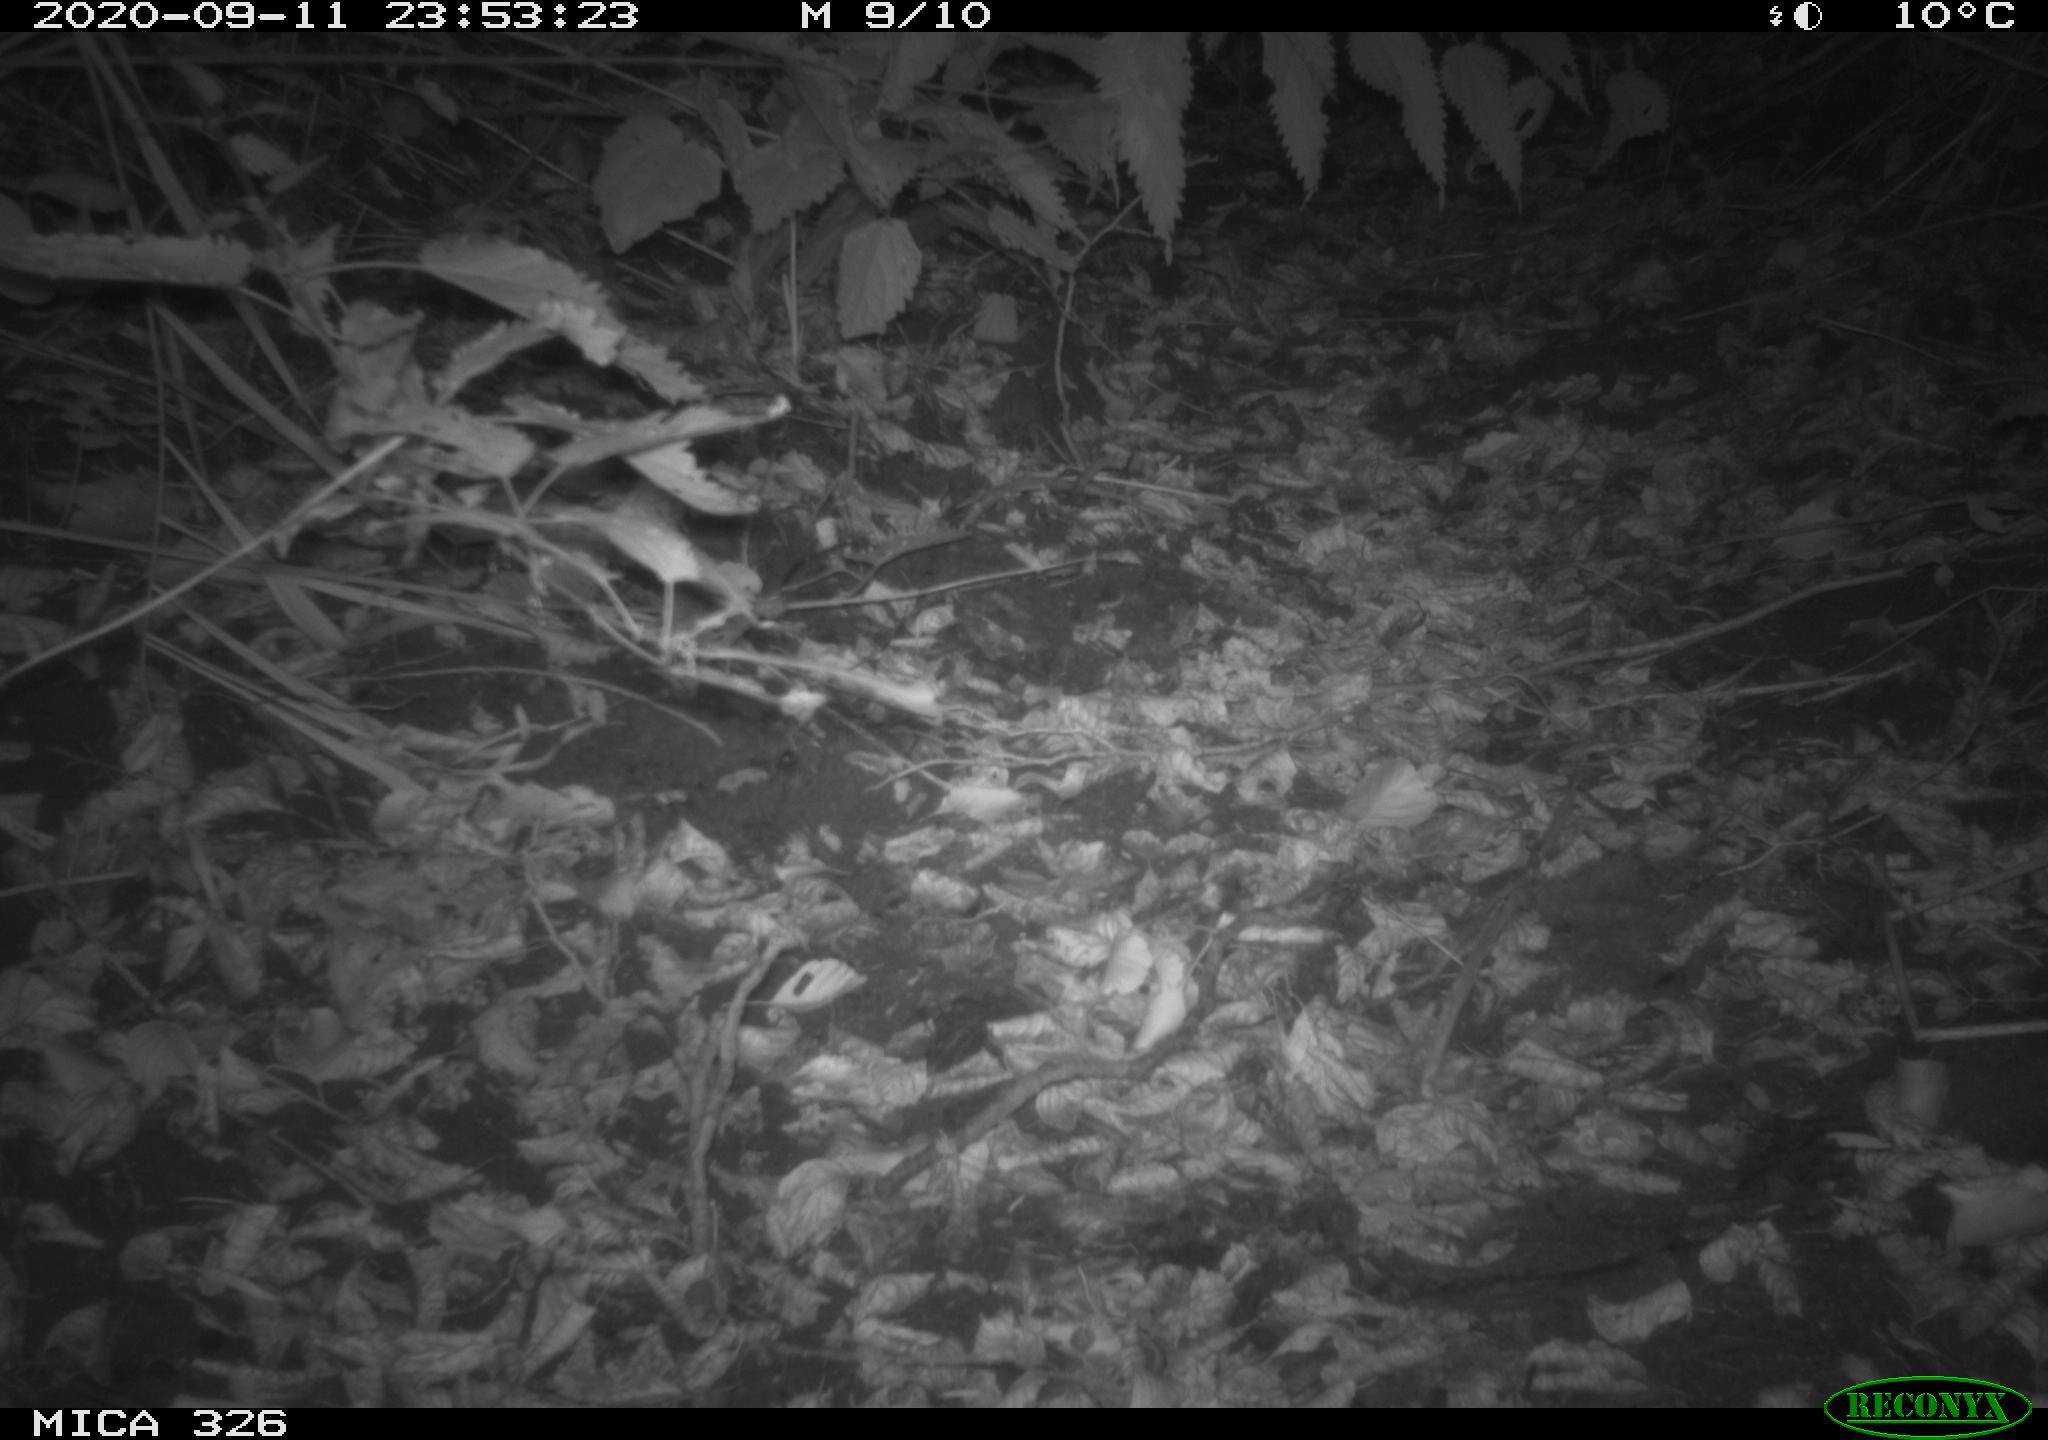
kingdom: Animalia
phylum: Chordata
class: Mammalia
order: Carnivora
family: Mustelidae
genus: Lutra
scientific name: Lutra lutra
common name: European otter
